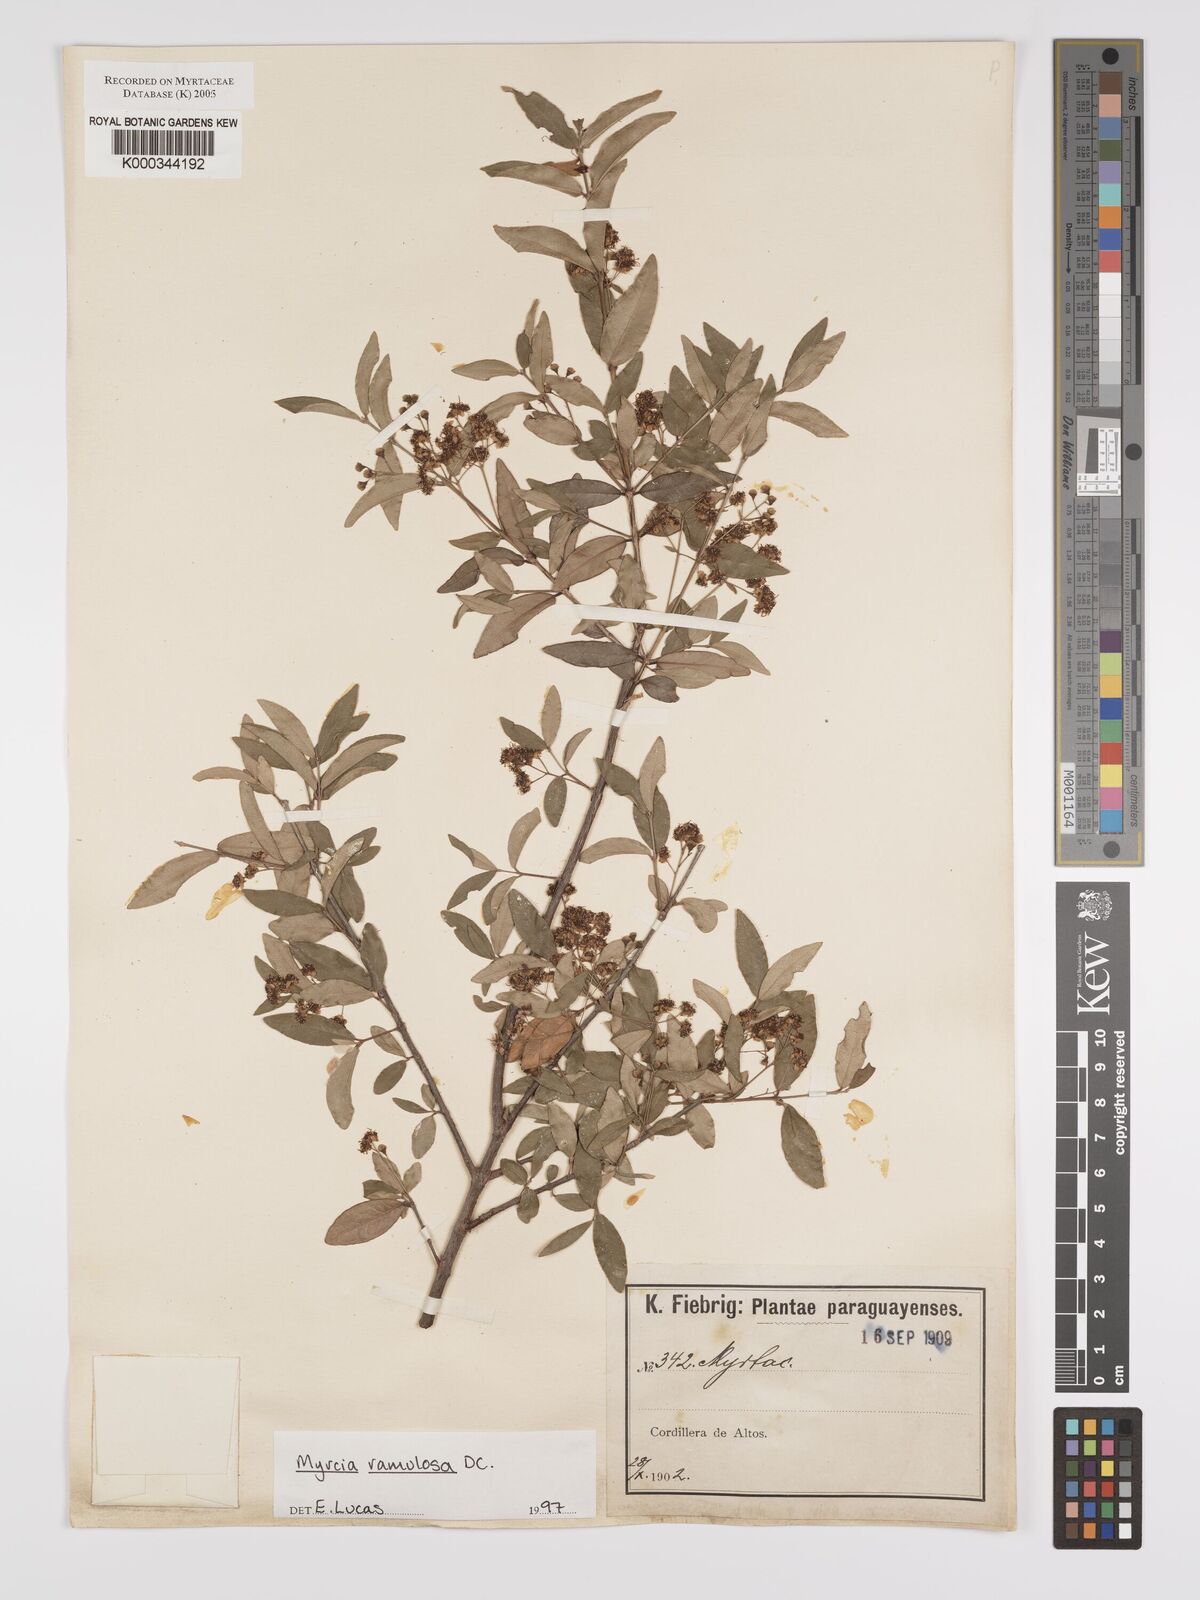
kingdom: Plantae
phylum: Tracheophyta
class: Magnoliopsida
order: Myrtales
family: Myrtaceae
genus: Myrcia
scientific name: Myrcia selloi
